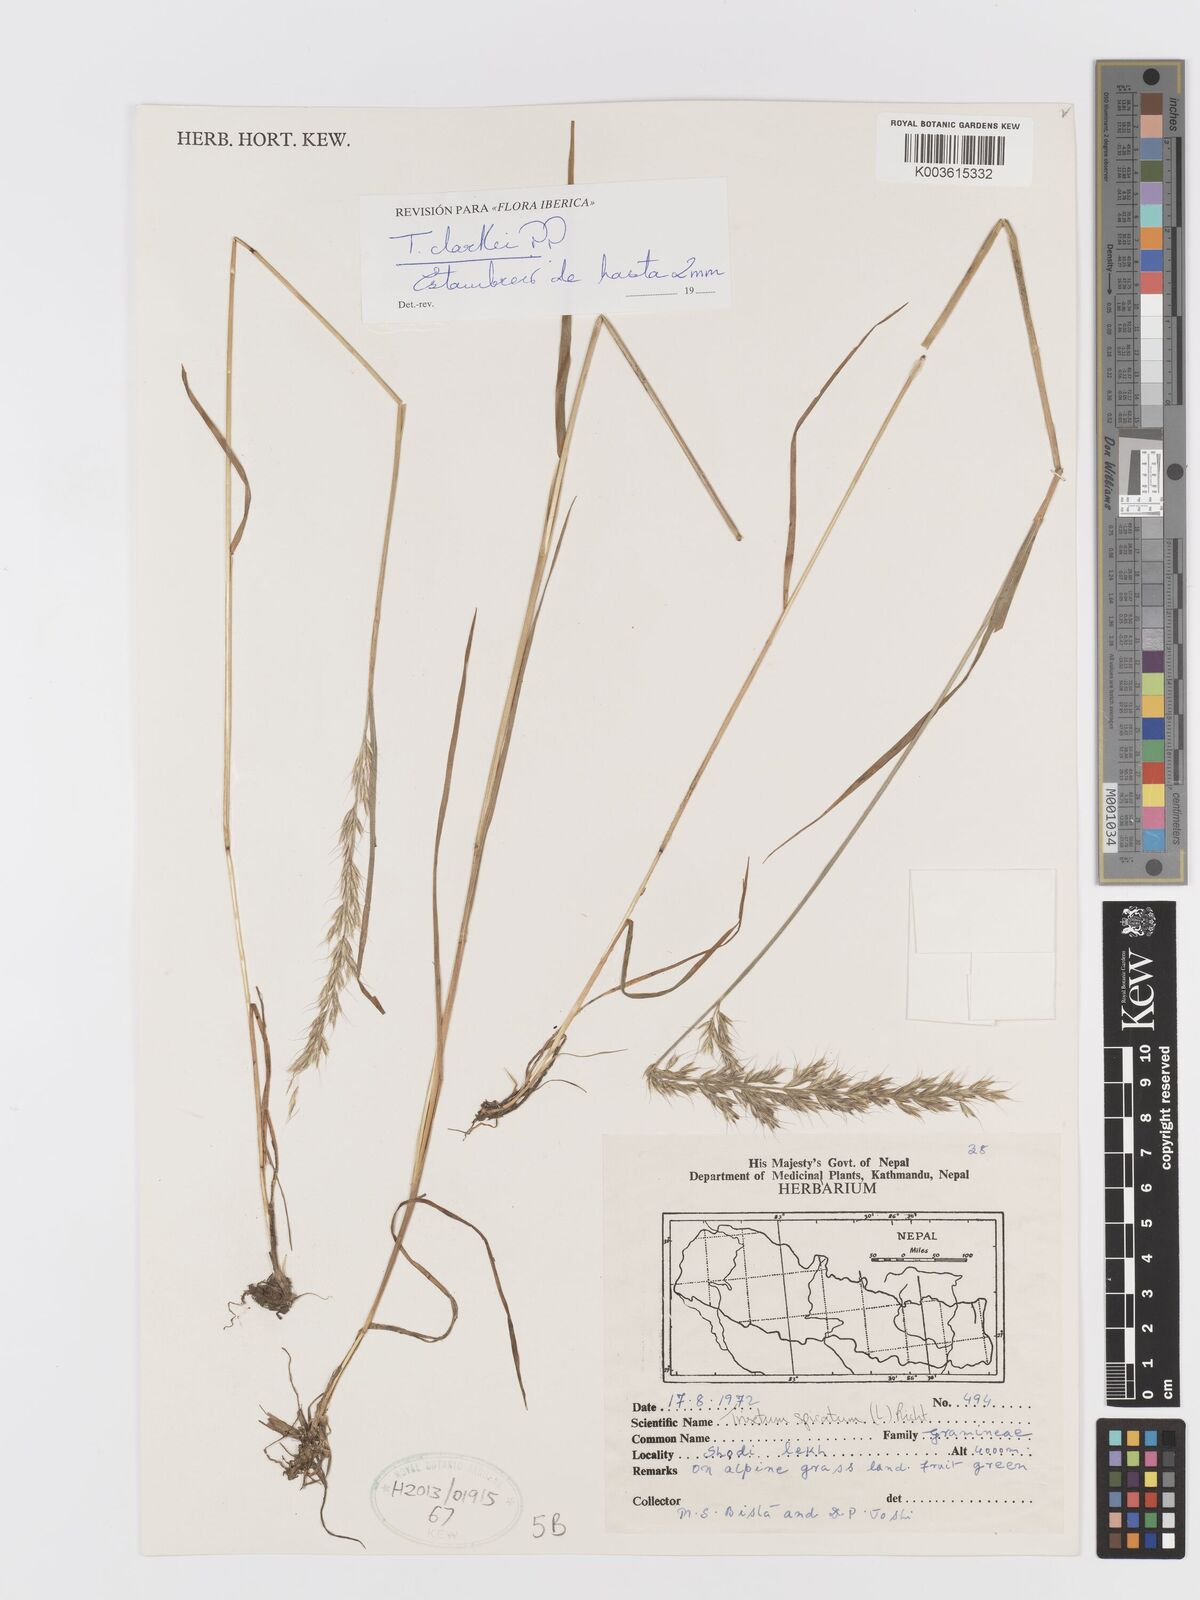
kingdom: Plantae
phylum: Tracheophyta
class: Liliopsida
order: Poales
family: Poaceae
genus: Trisetum
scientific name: Trisetum clarkei
